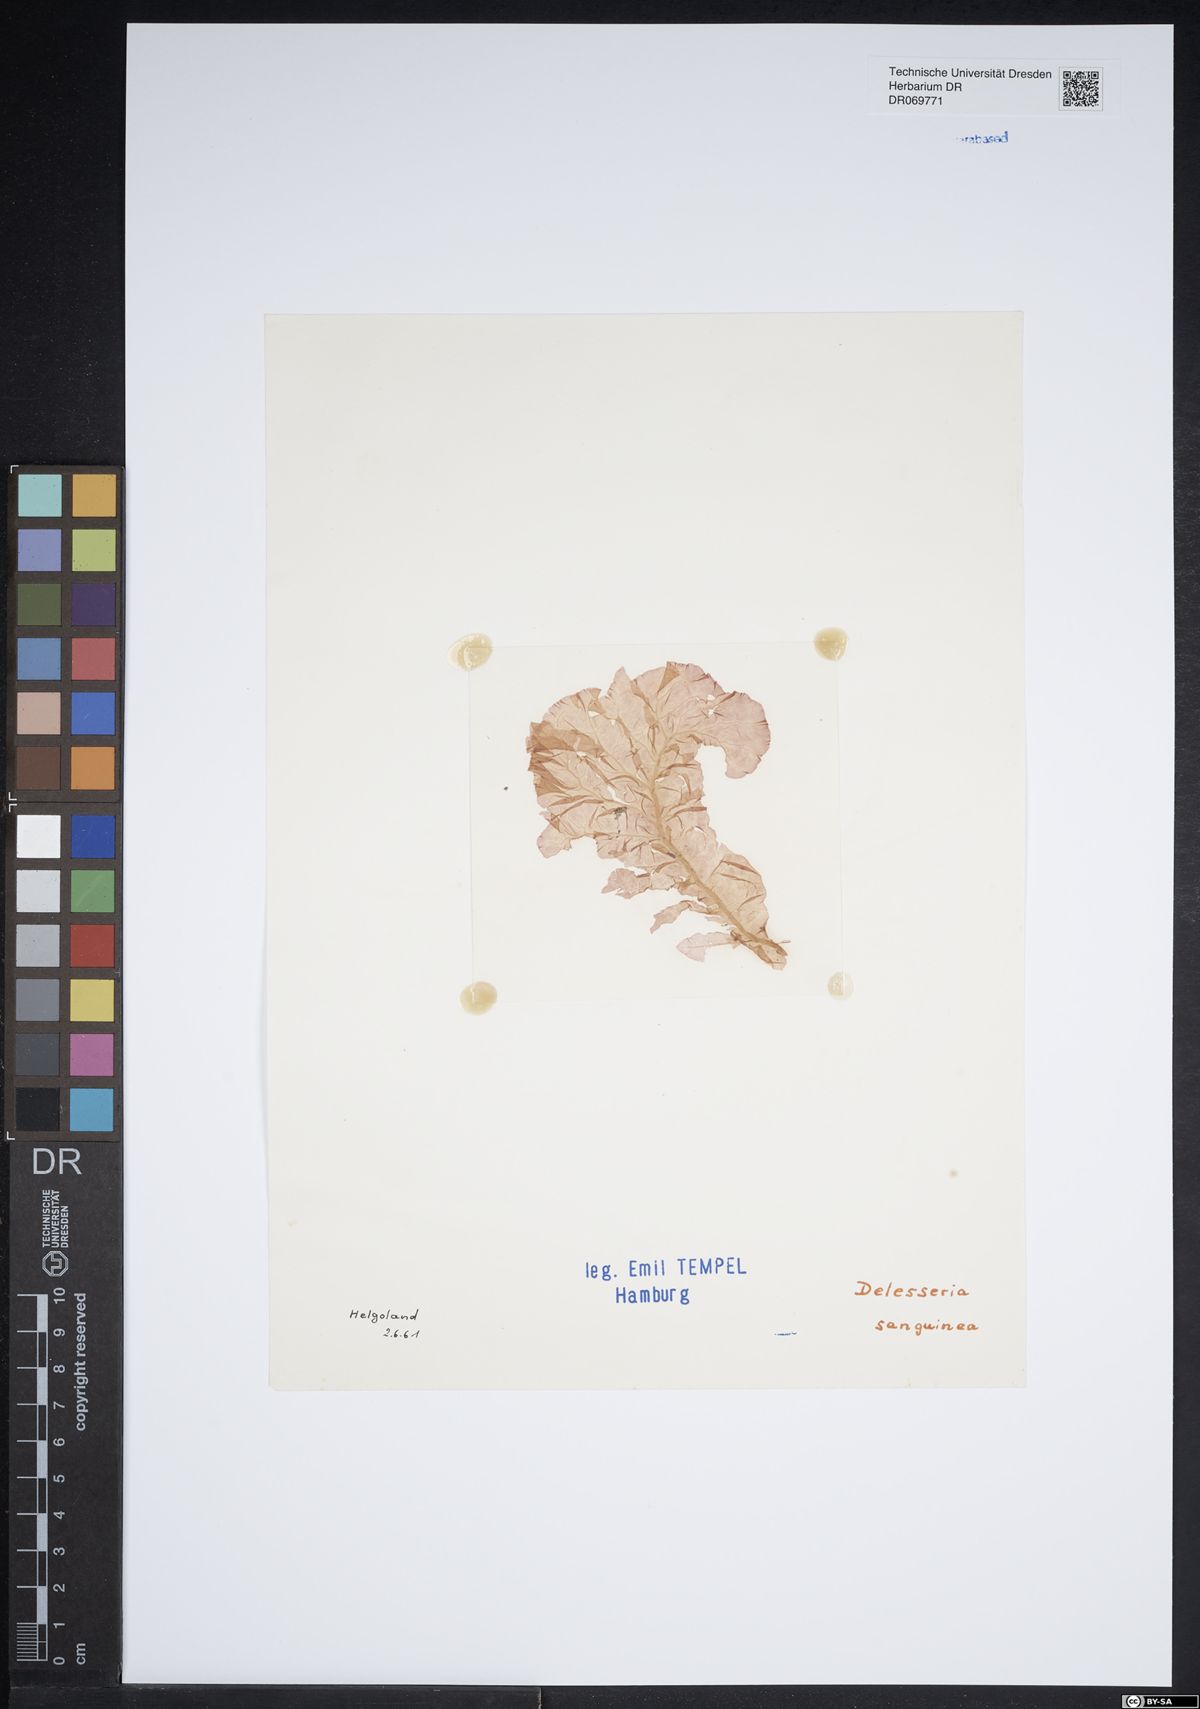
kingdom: Plantae
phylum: Rhodophyta
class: Florideophyceae
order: Ceramiales
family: Delesseriaceae
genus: Delesseria
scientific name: Delesseria sanguinea
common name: Sea beech
